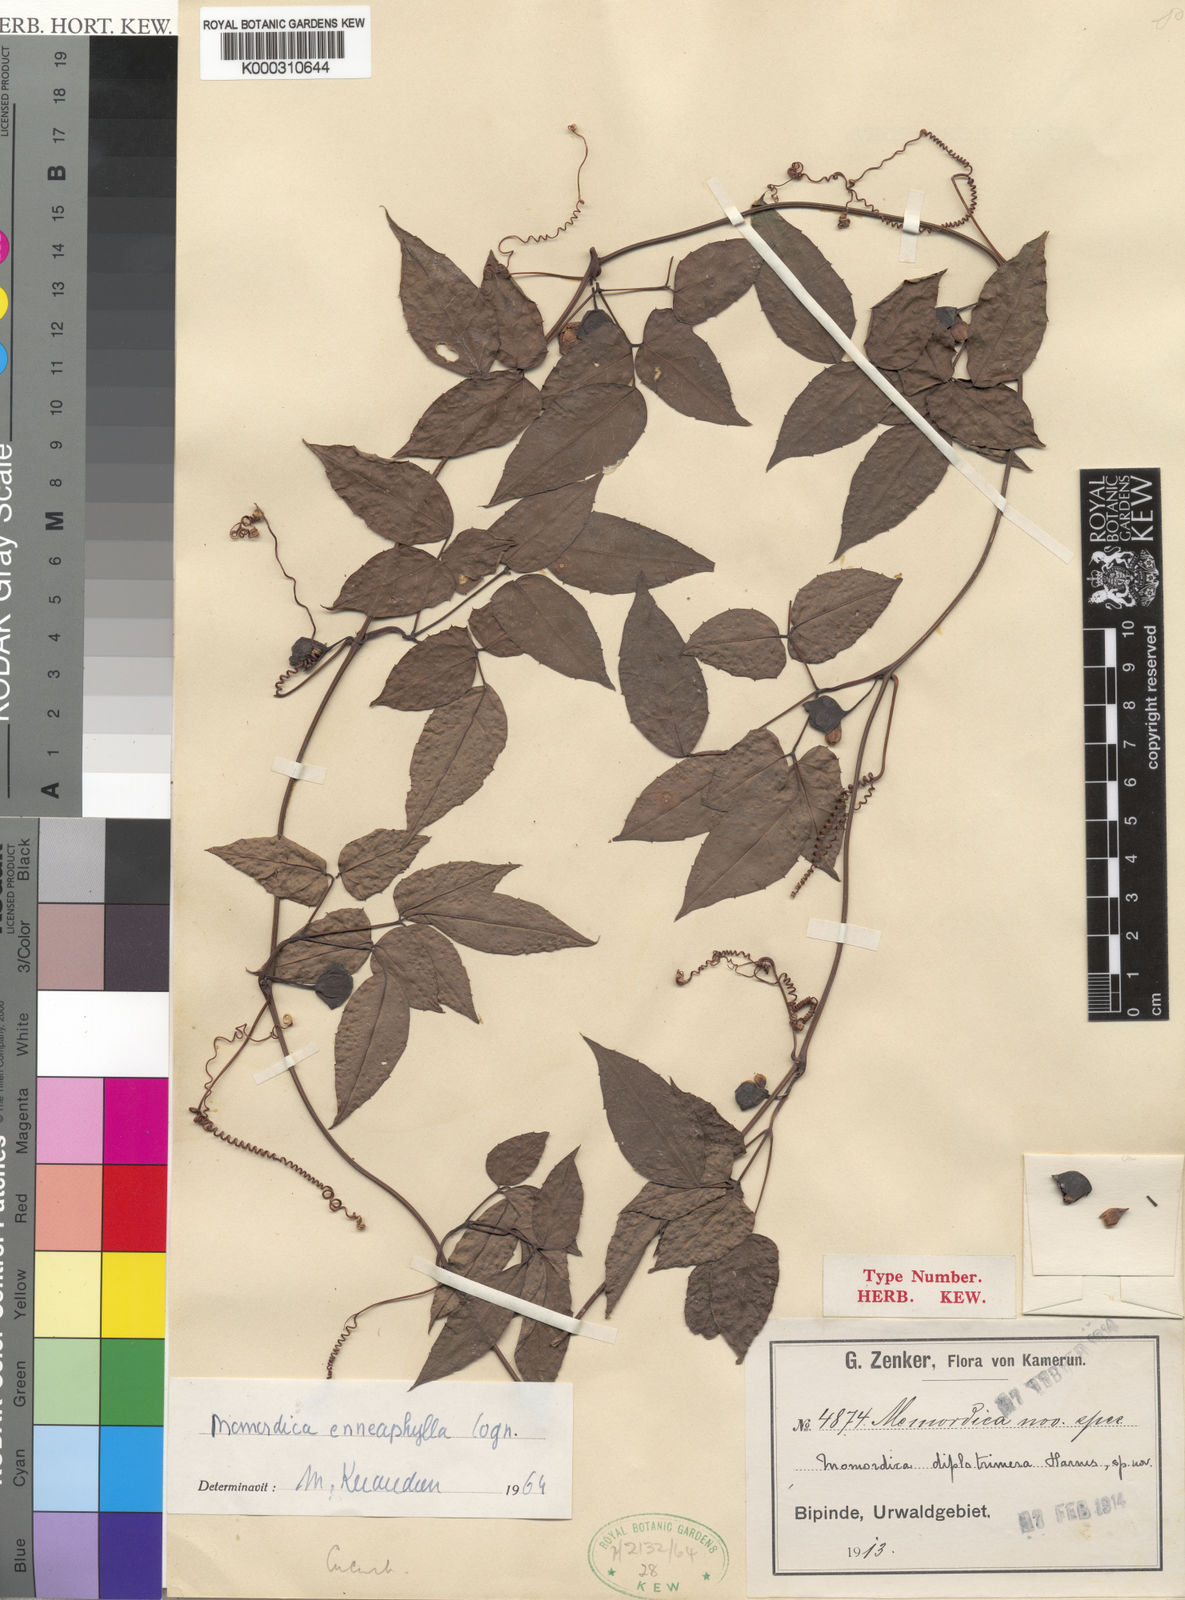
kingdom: Plantae
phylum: Tracheophyta
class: Magnoliopsida
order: Cucurbitales
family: Cucurbitaceae
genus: Momordica
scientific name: Momordica enneaphylla
